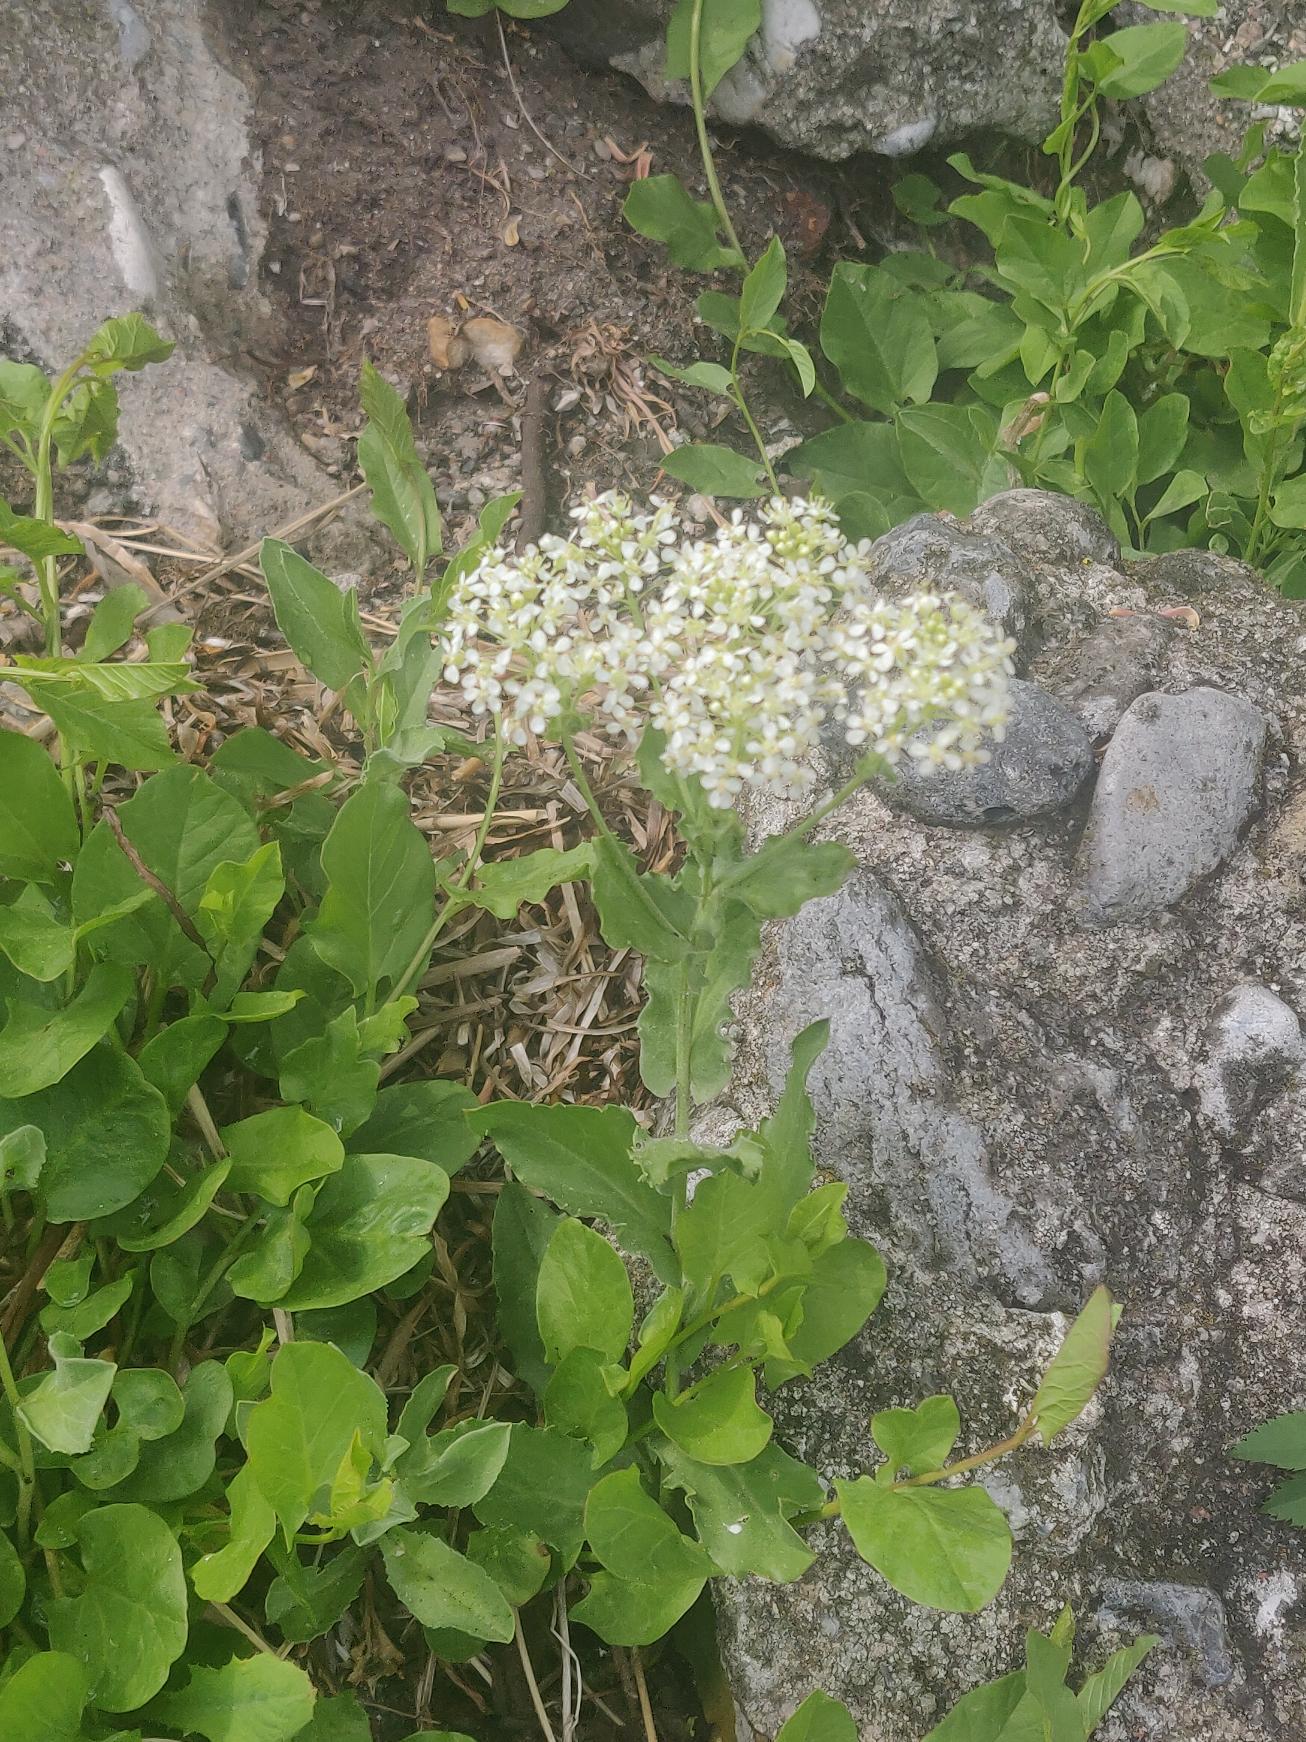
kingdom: Plantae
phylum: Tracheophyta
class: Magnoliopsida
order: Brassicales
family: Brassicaceae
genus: Lepidium
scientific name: Lepidium draba
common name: Hjerte-karse
